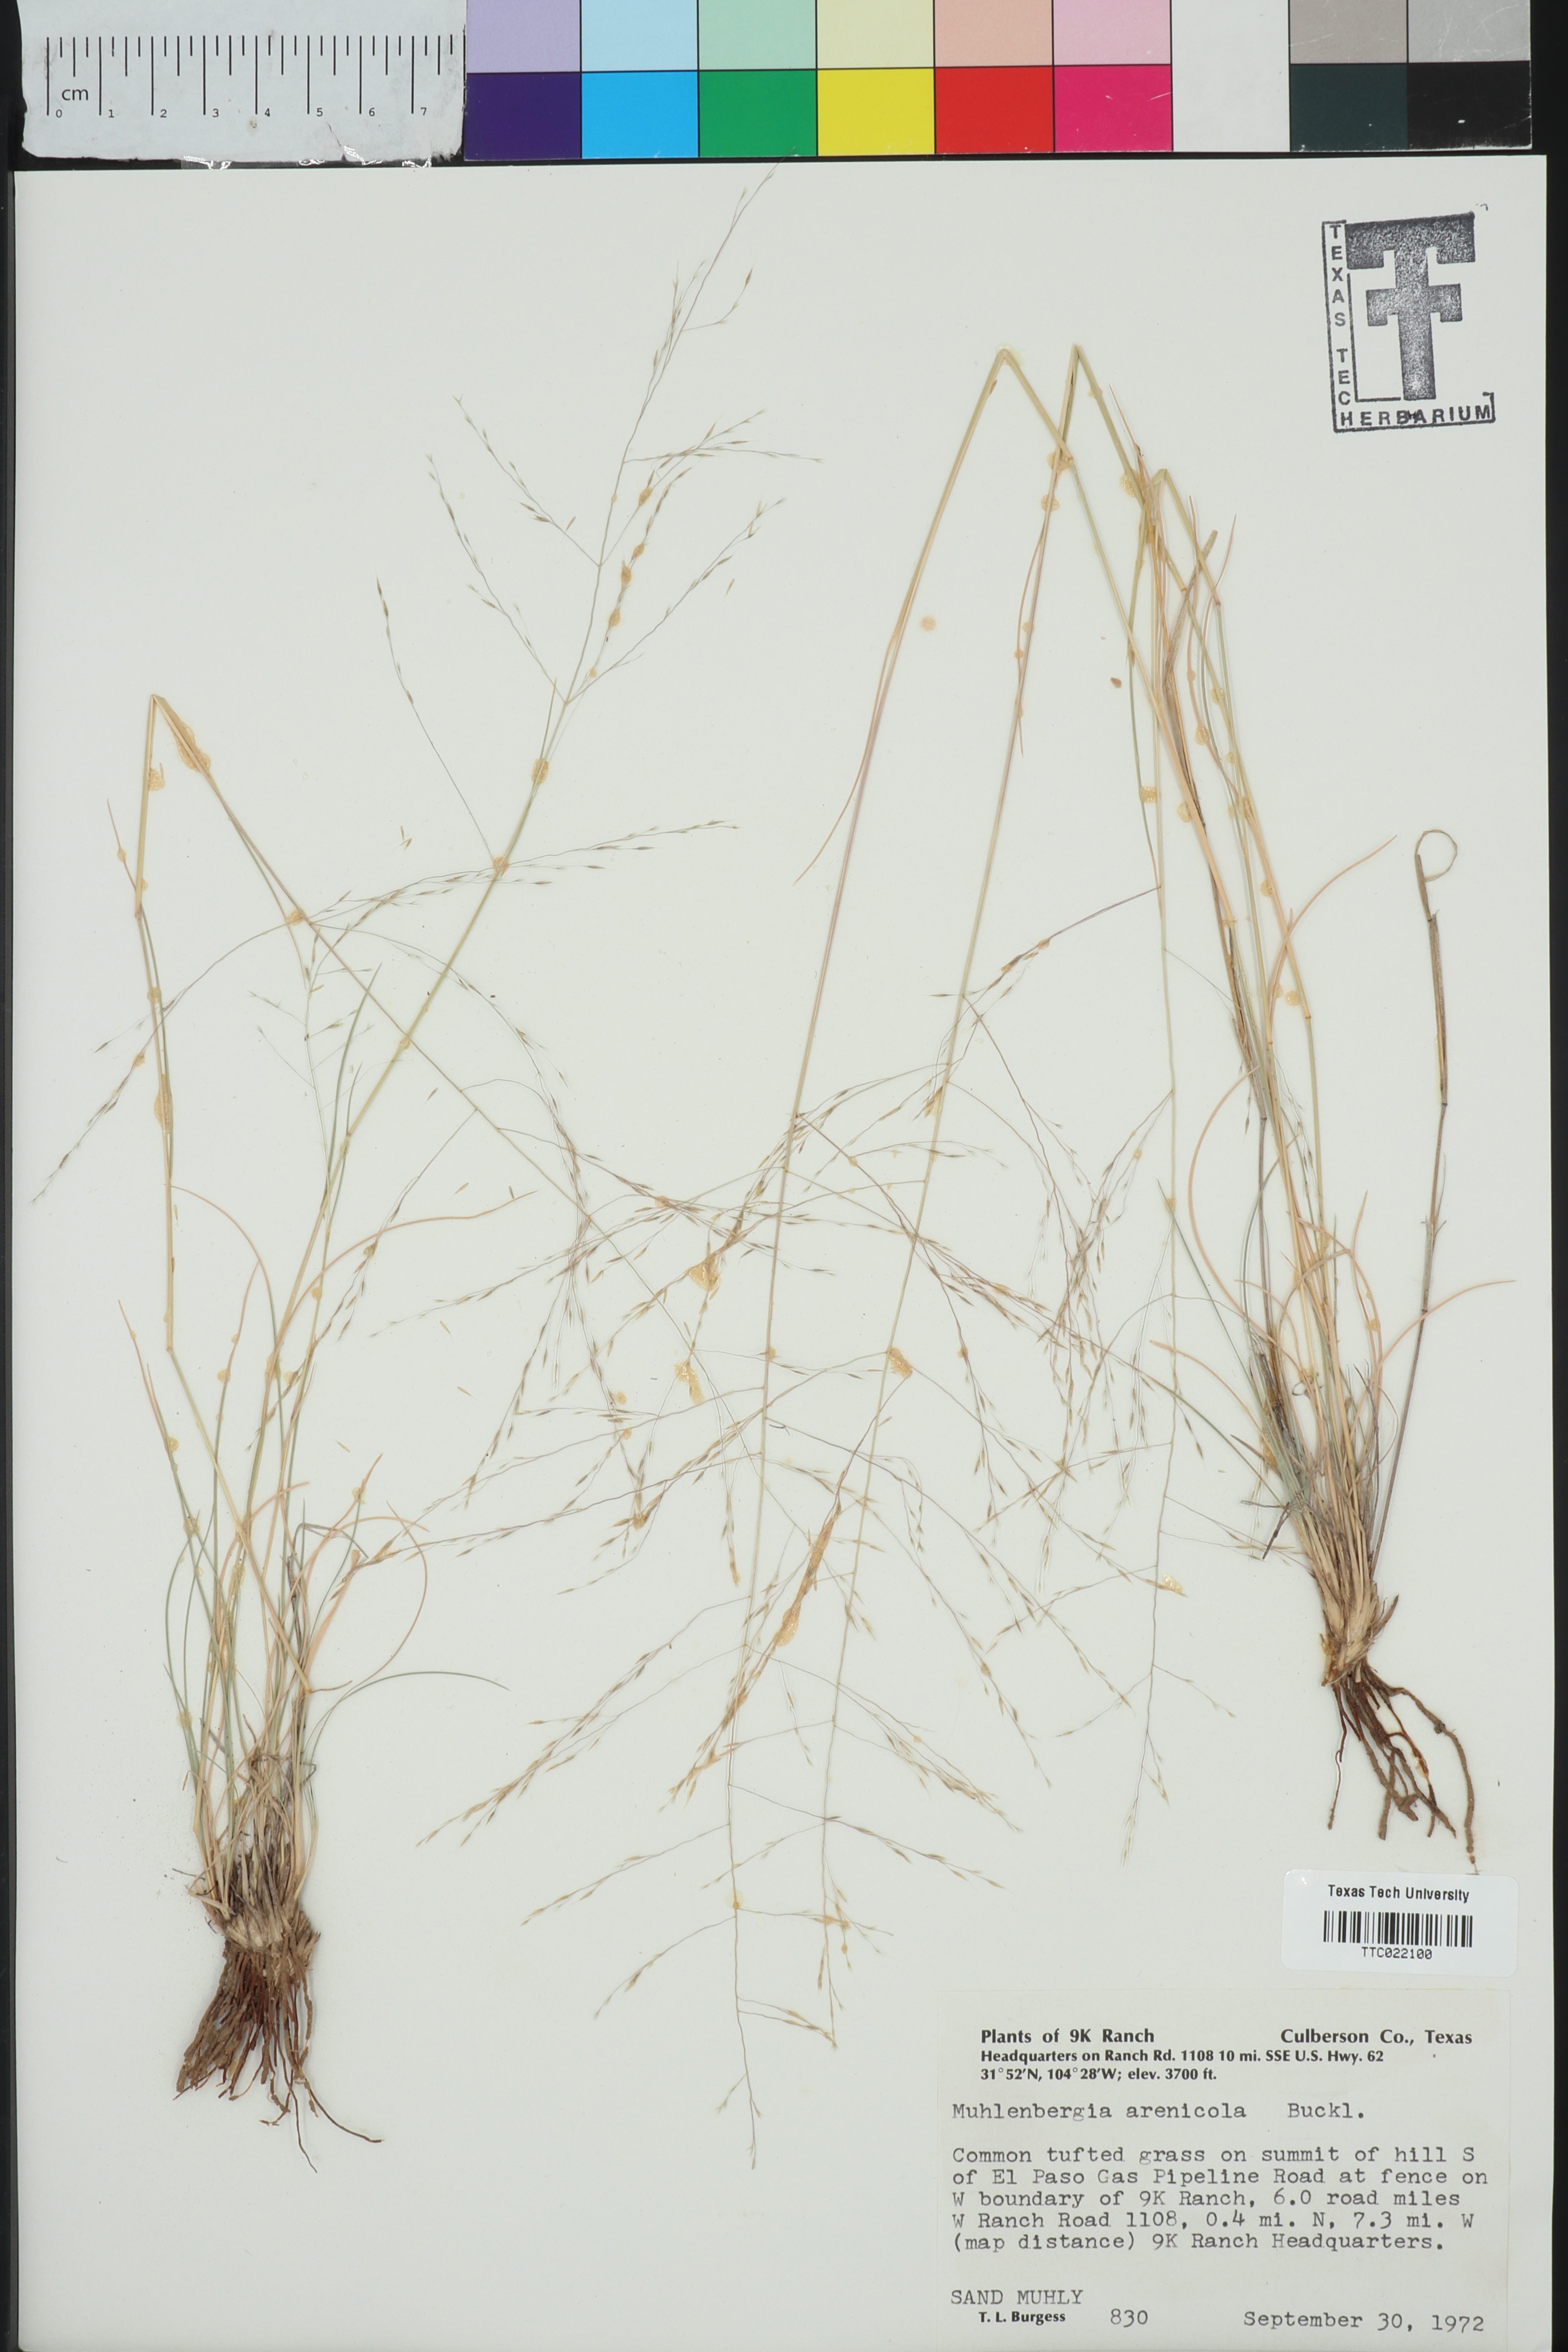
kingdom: Plantae
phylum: Tracheophyta
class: Liliopsida
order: Poales
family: Poaceae
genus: Muhlenbergia
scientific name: Muhlenbergia arenicola
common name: Sand muhly
